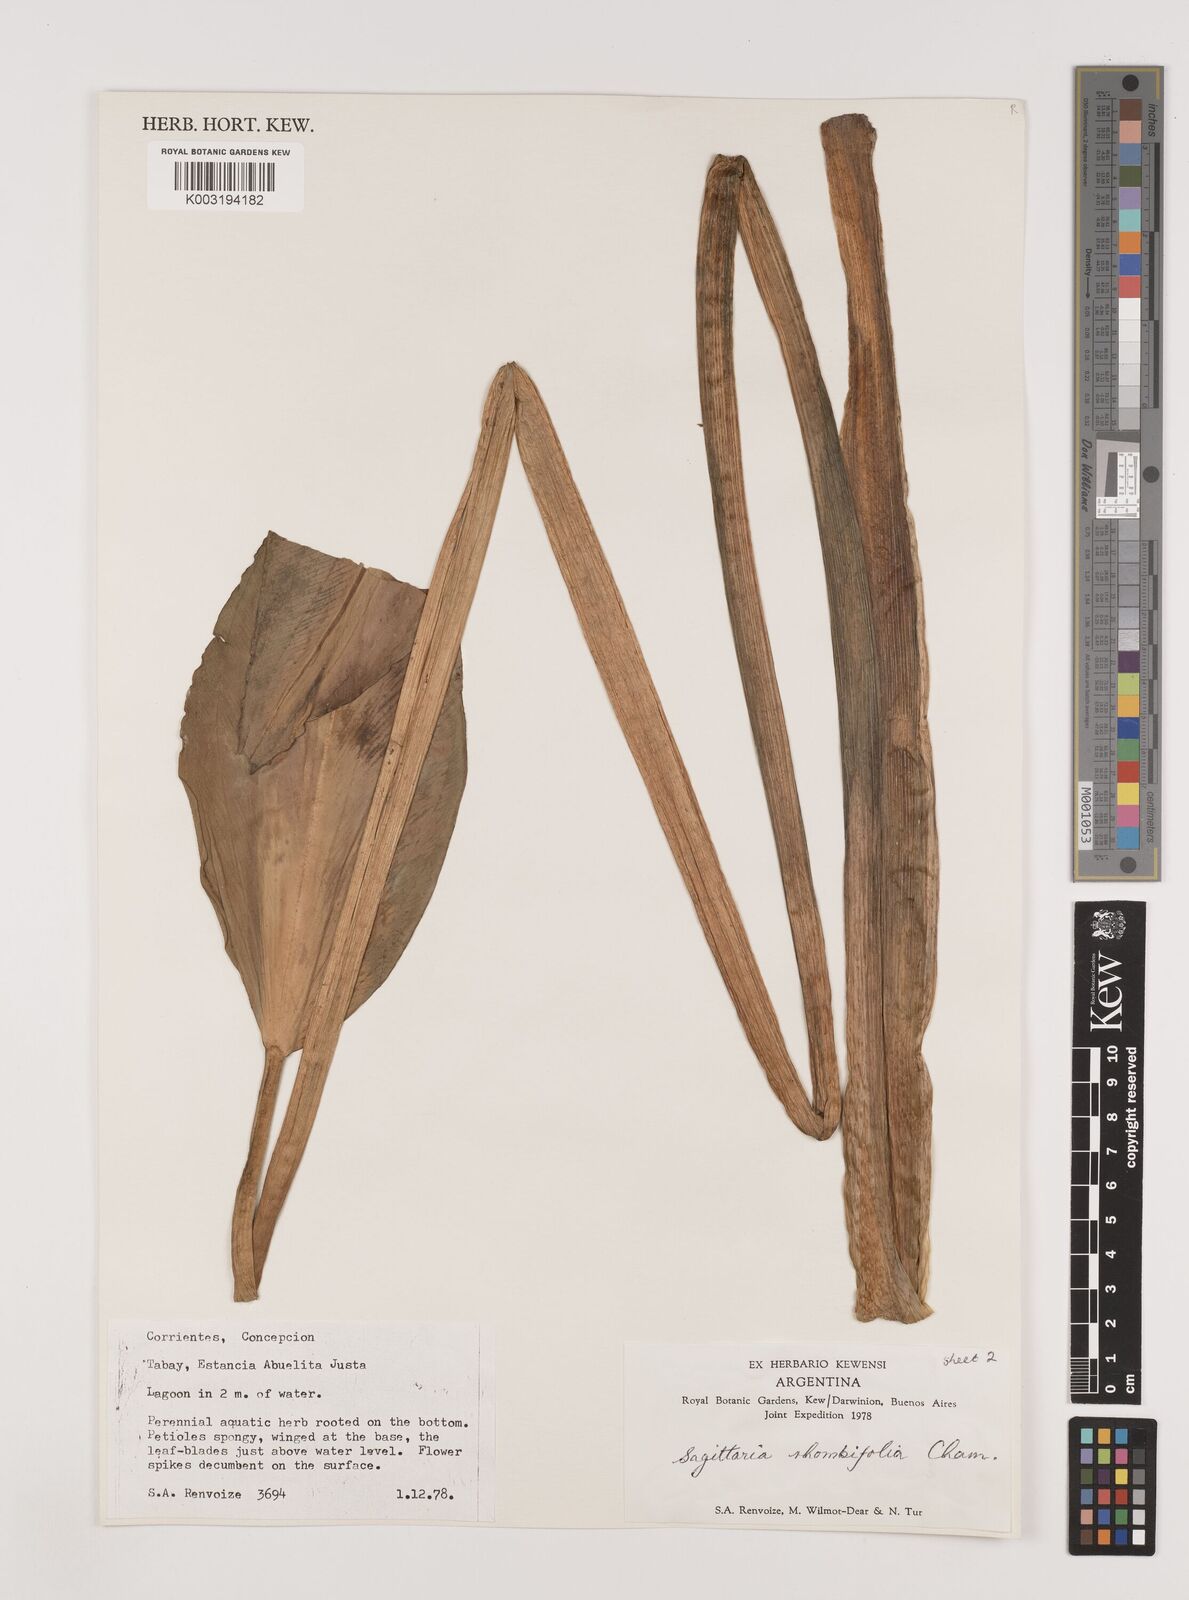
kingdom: Plantae
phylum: Tracheophyta
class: Liliopsida
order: Alismatales
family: Alismataceae
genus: Sagittaria
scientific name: Sagittaria rhombifolia
